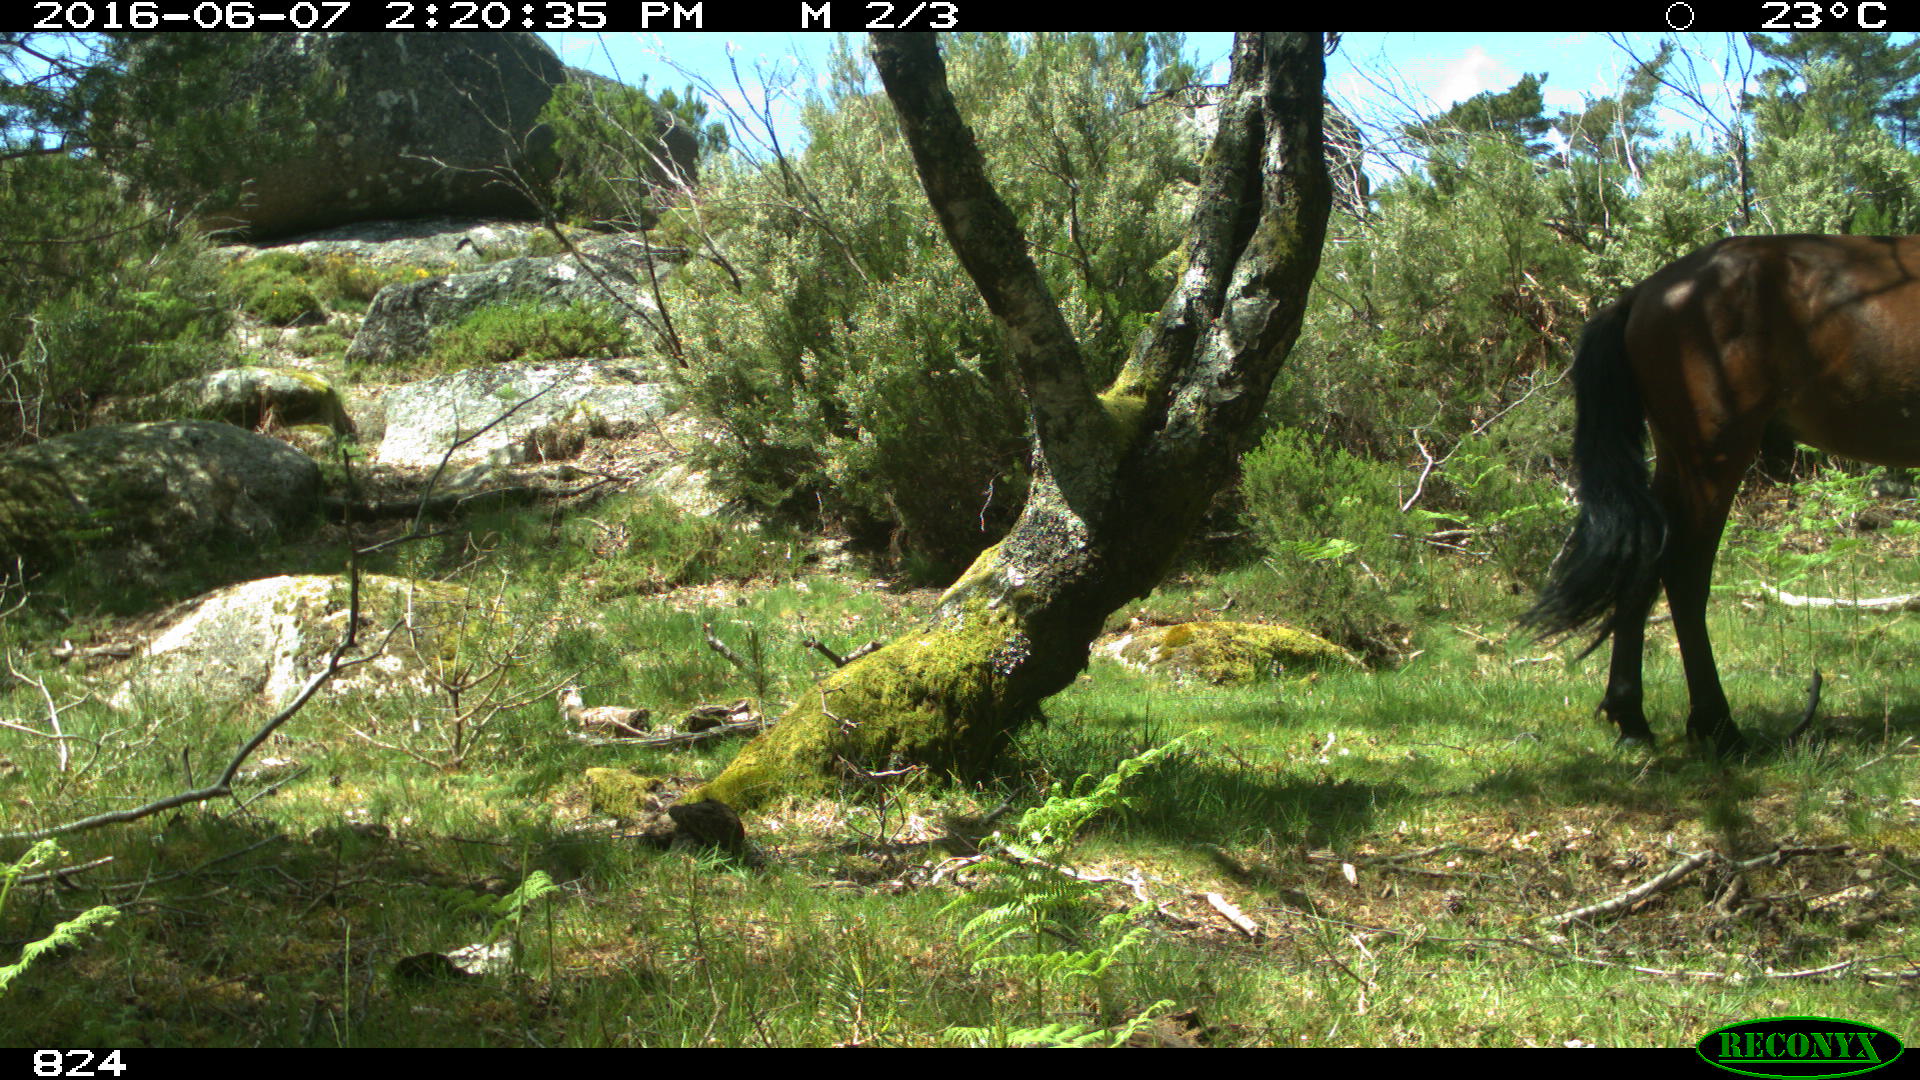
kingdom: Animalia
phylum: Chordata
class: Mammalia
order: Perissodactyla
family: Equidae
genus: Equus
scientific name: Equus caballus
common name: Horse
